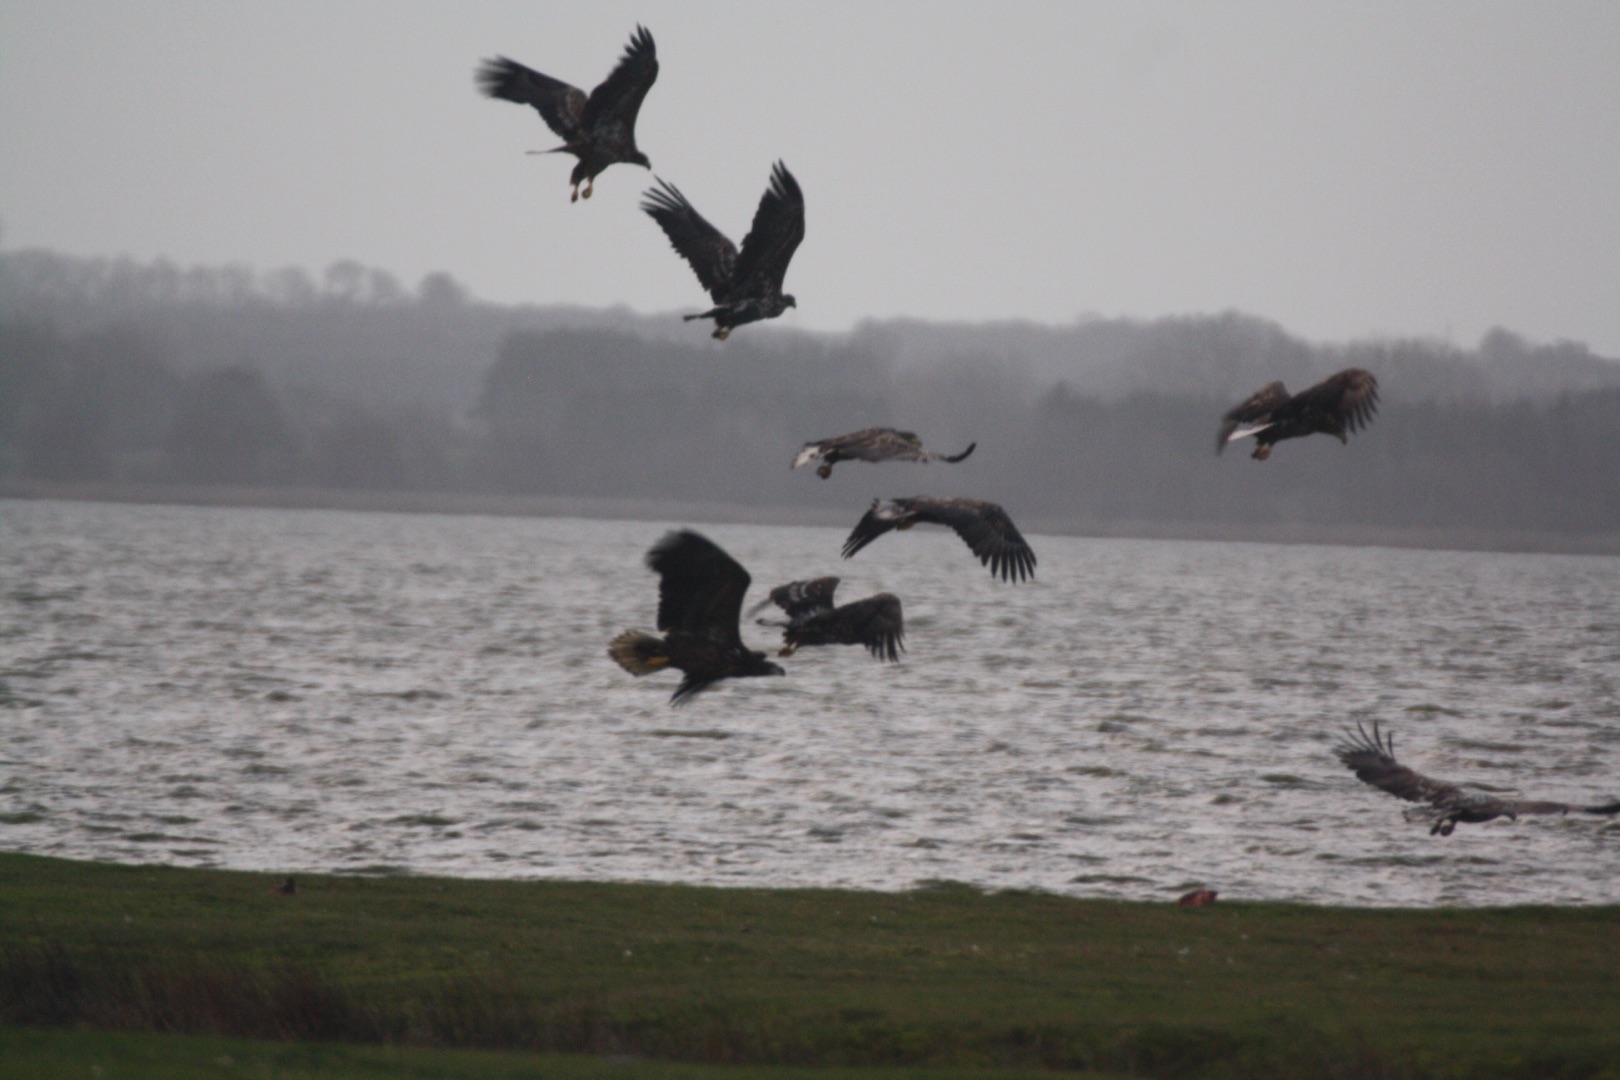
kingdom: Animalia
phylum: Chordata
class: Aves
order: Accipitriformes
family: Accipitridae
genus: Haliaeetus
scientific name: Haliaeetus albicilla
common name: Havørn
